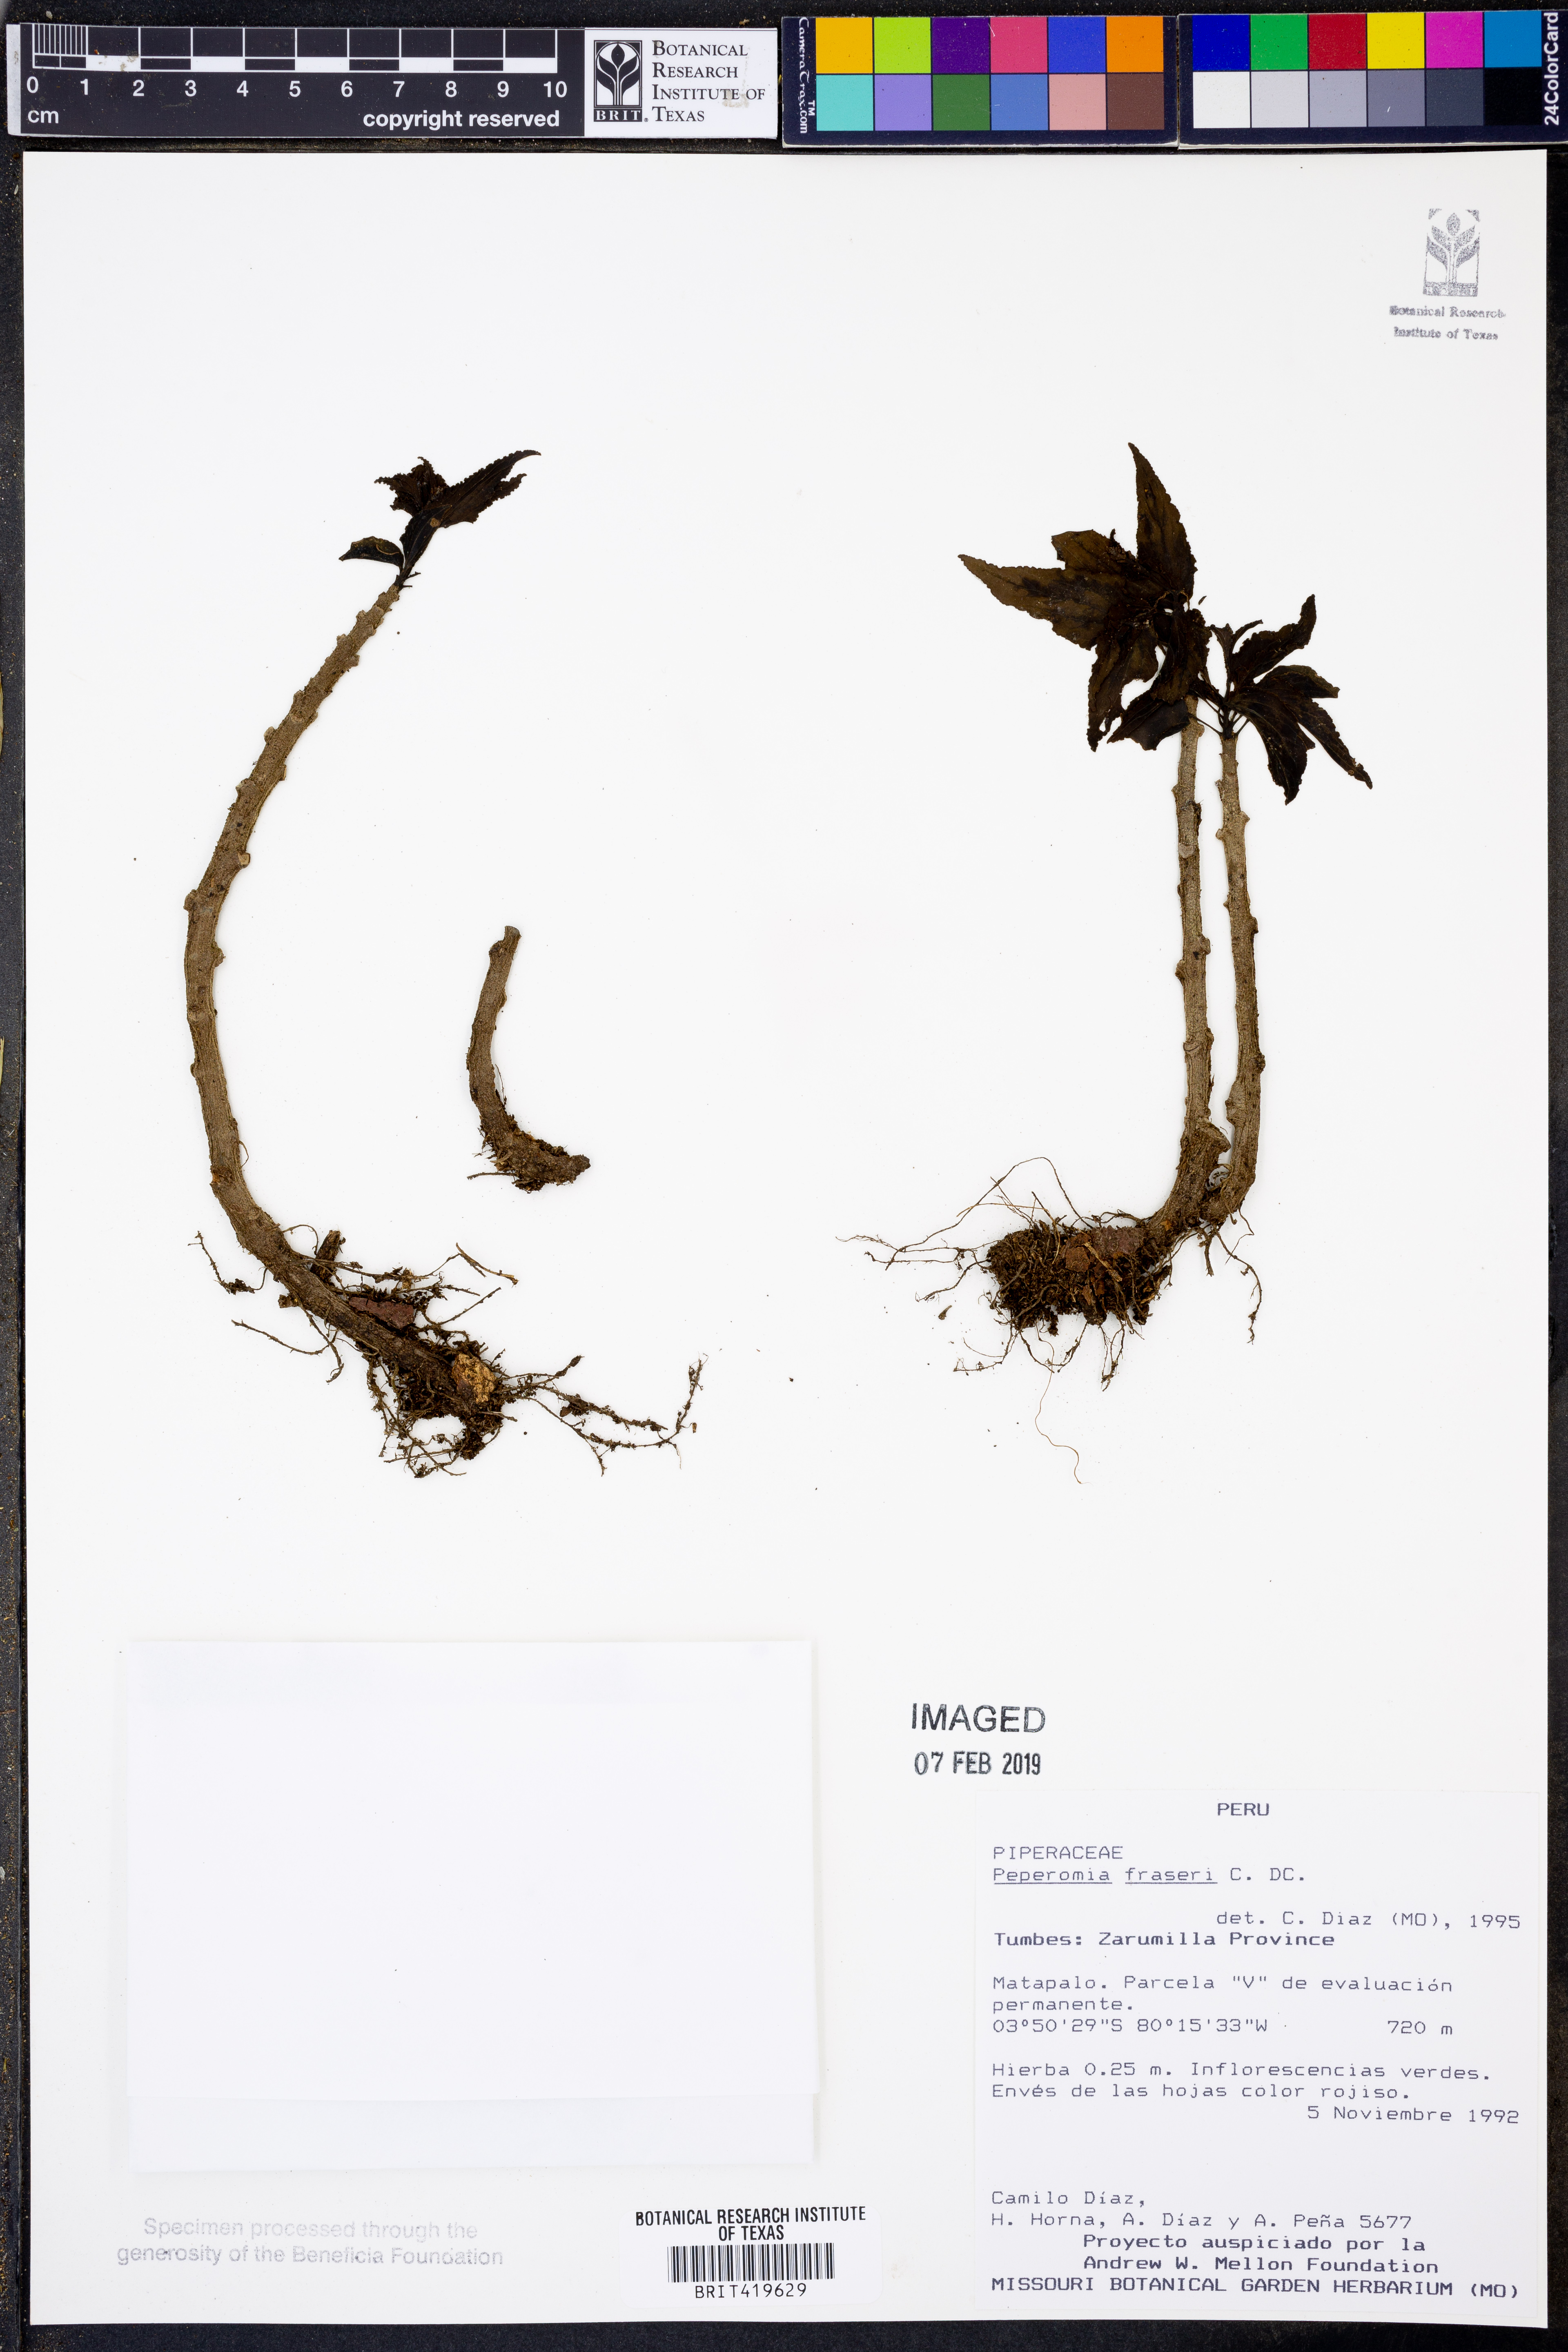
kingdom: Plantae
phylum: Tracheophyta
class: Magnoliopsida
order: Piperales
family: Piperaceae
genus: Peperomia
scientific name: Peperomia fraseri
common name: Mignonette peperomia
